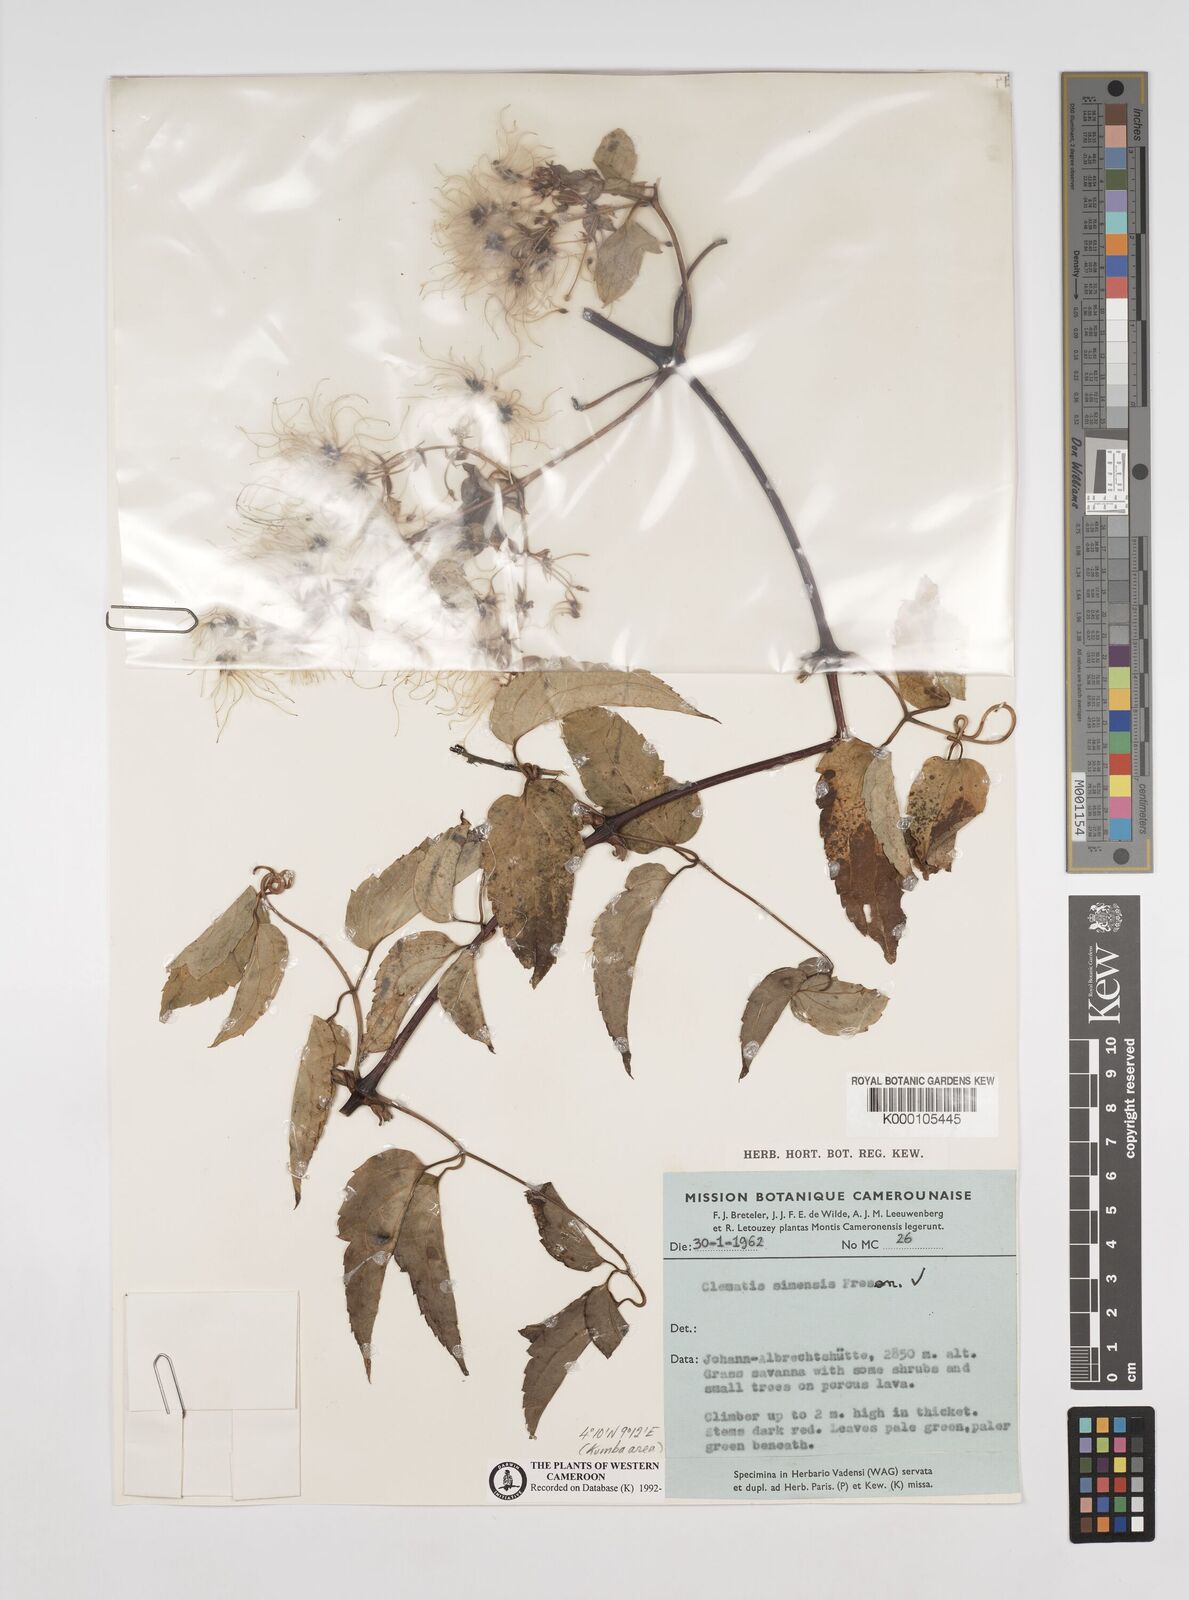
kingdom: Plantae
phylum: Tracheophyta
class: Magnoliopsida
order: Ranunculales
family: Ranunculaceae
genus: Clematis
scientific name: Clematis simensis
